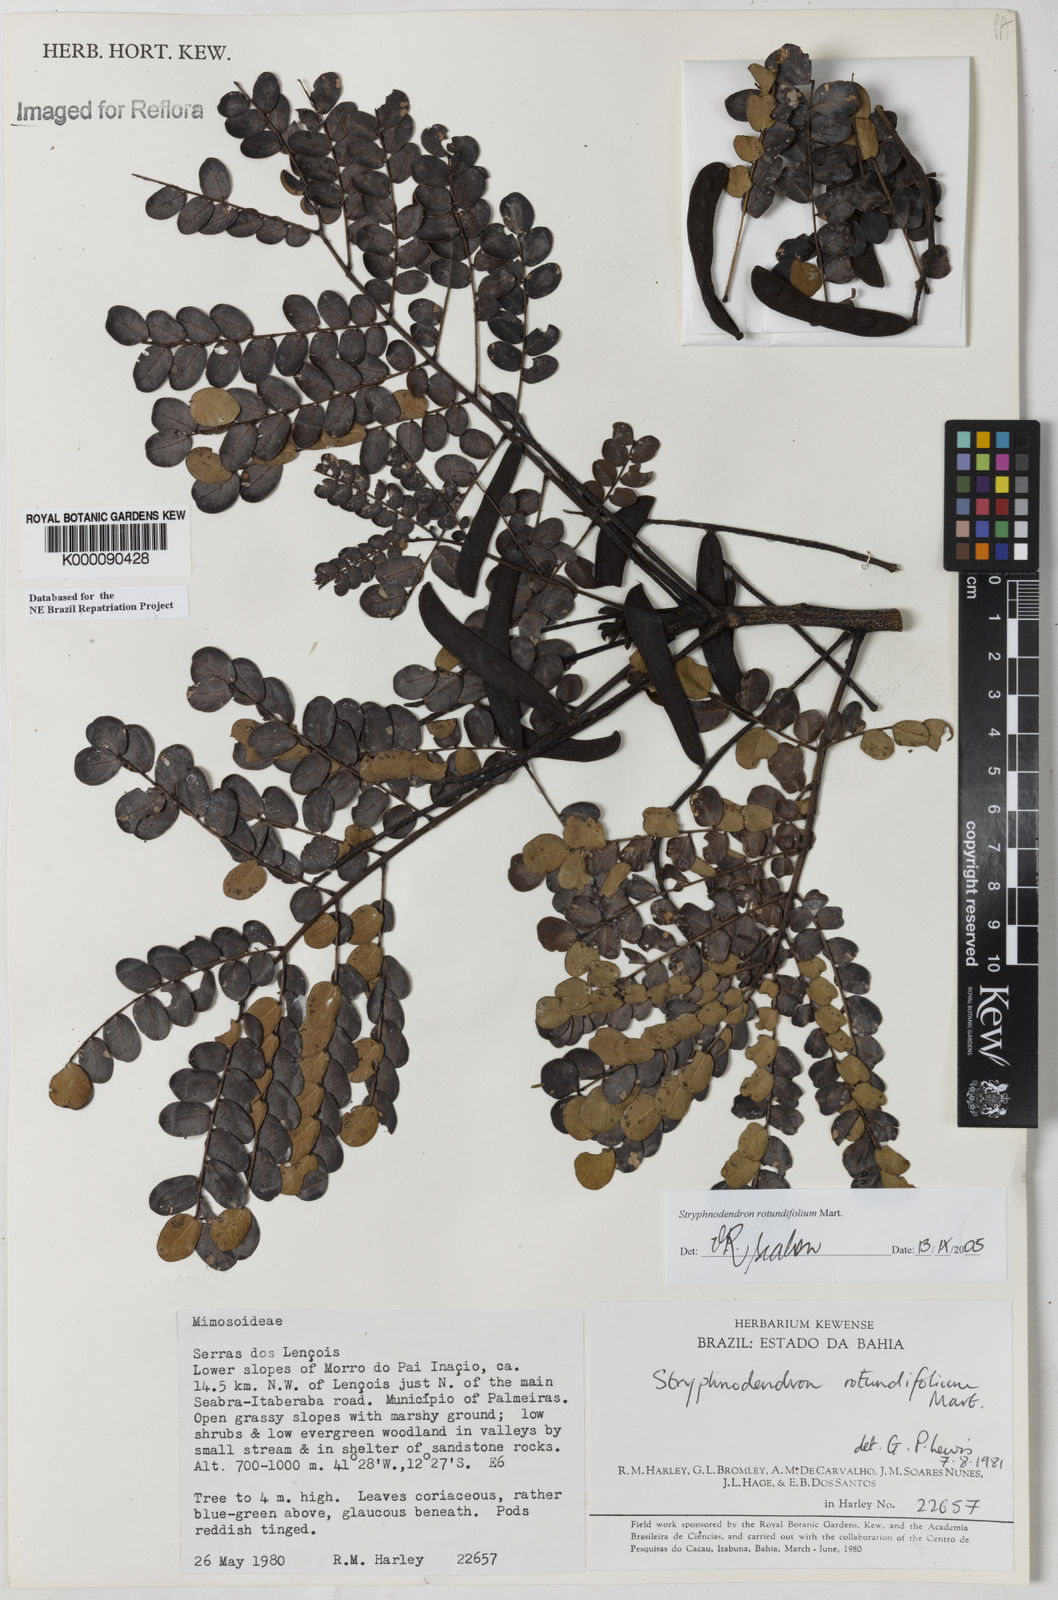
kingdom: Plantae
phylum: Tracheophyta
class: Magnoliopsida
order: Fabales
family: Fabaceae
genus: Stryphnodendron
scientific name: Stryphnodendron rotundifolium
